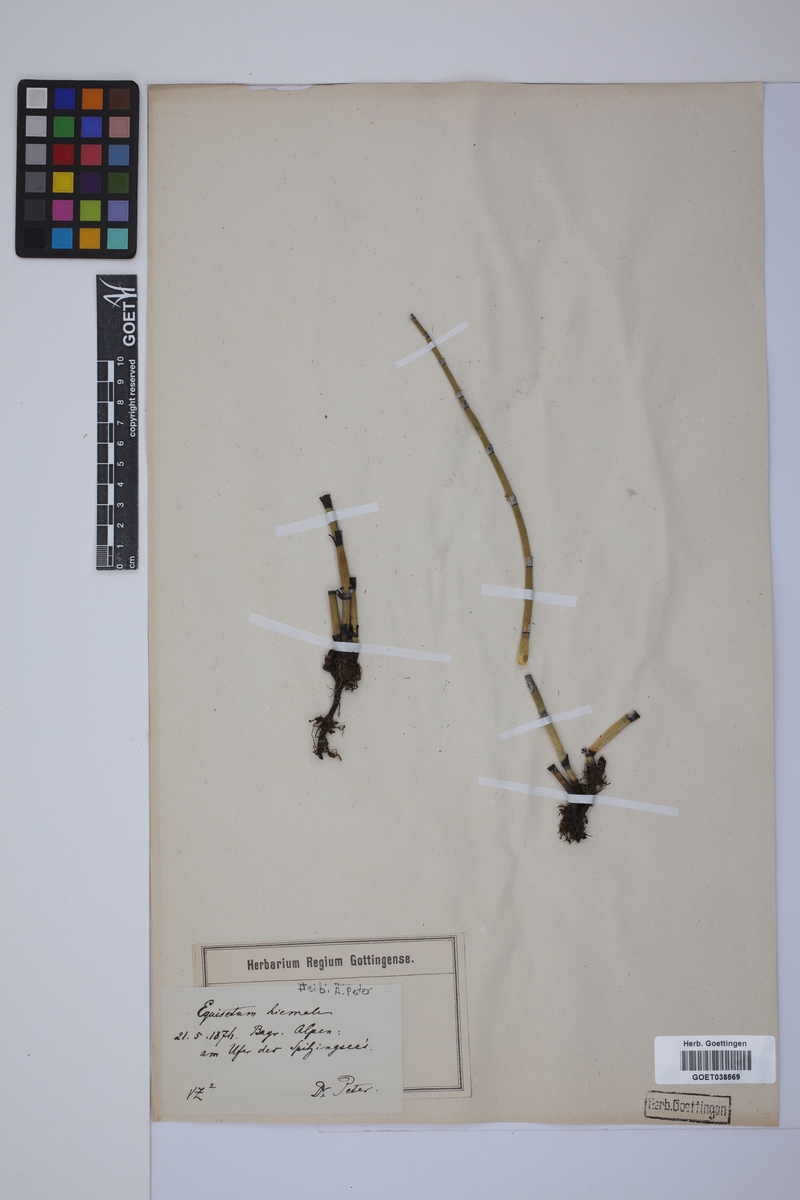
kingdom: Plantae
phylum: Tracheophyta
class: Polypodiopsida
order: Equisetales
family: Equisetaceae
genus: Equisetum
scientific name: Equisetum hyemale
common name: Rough horsetail
